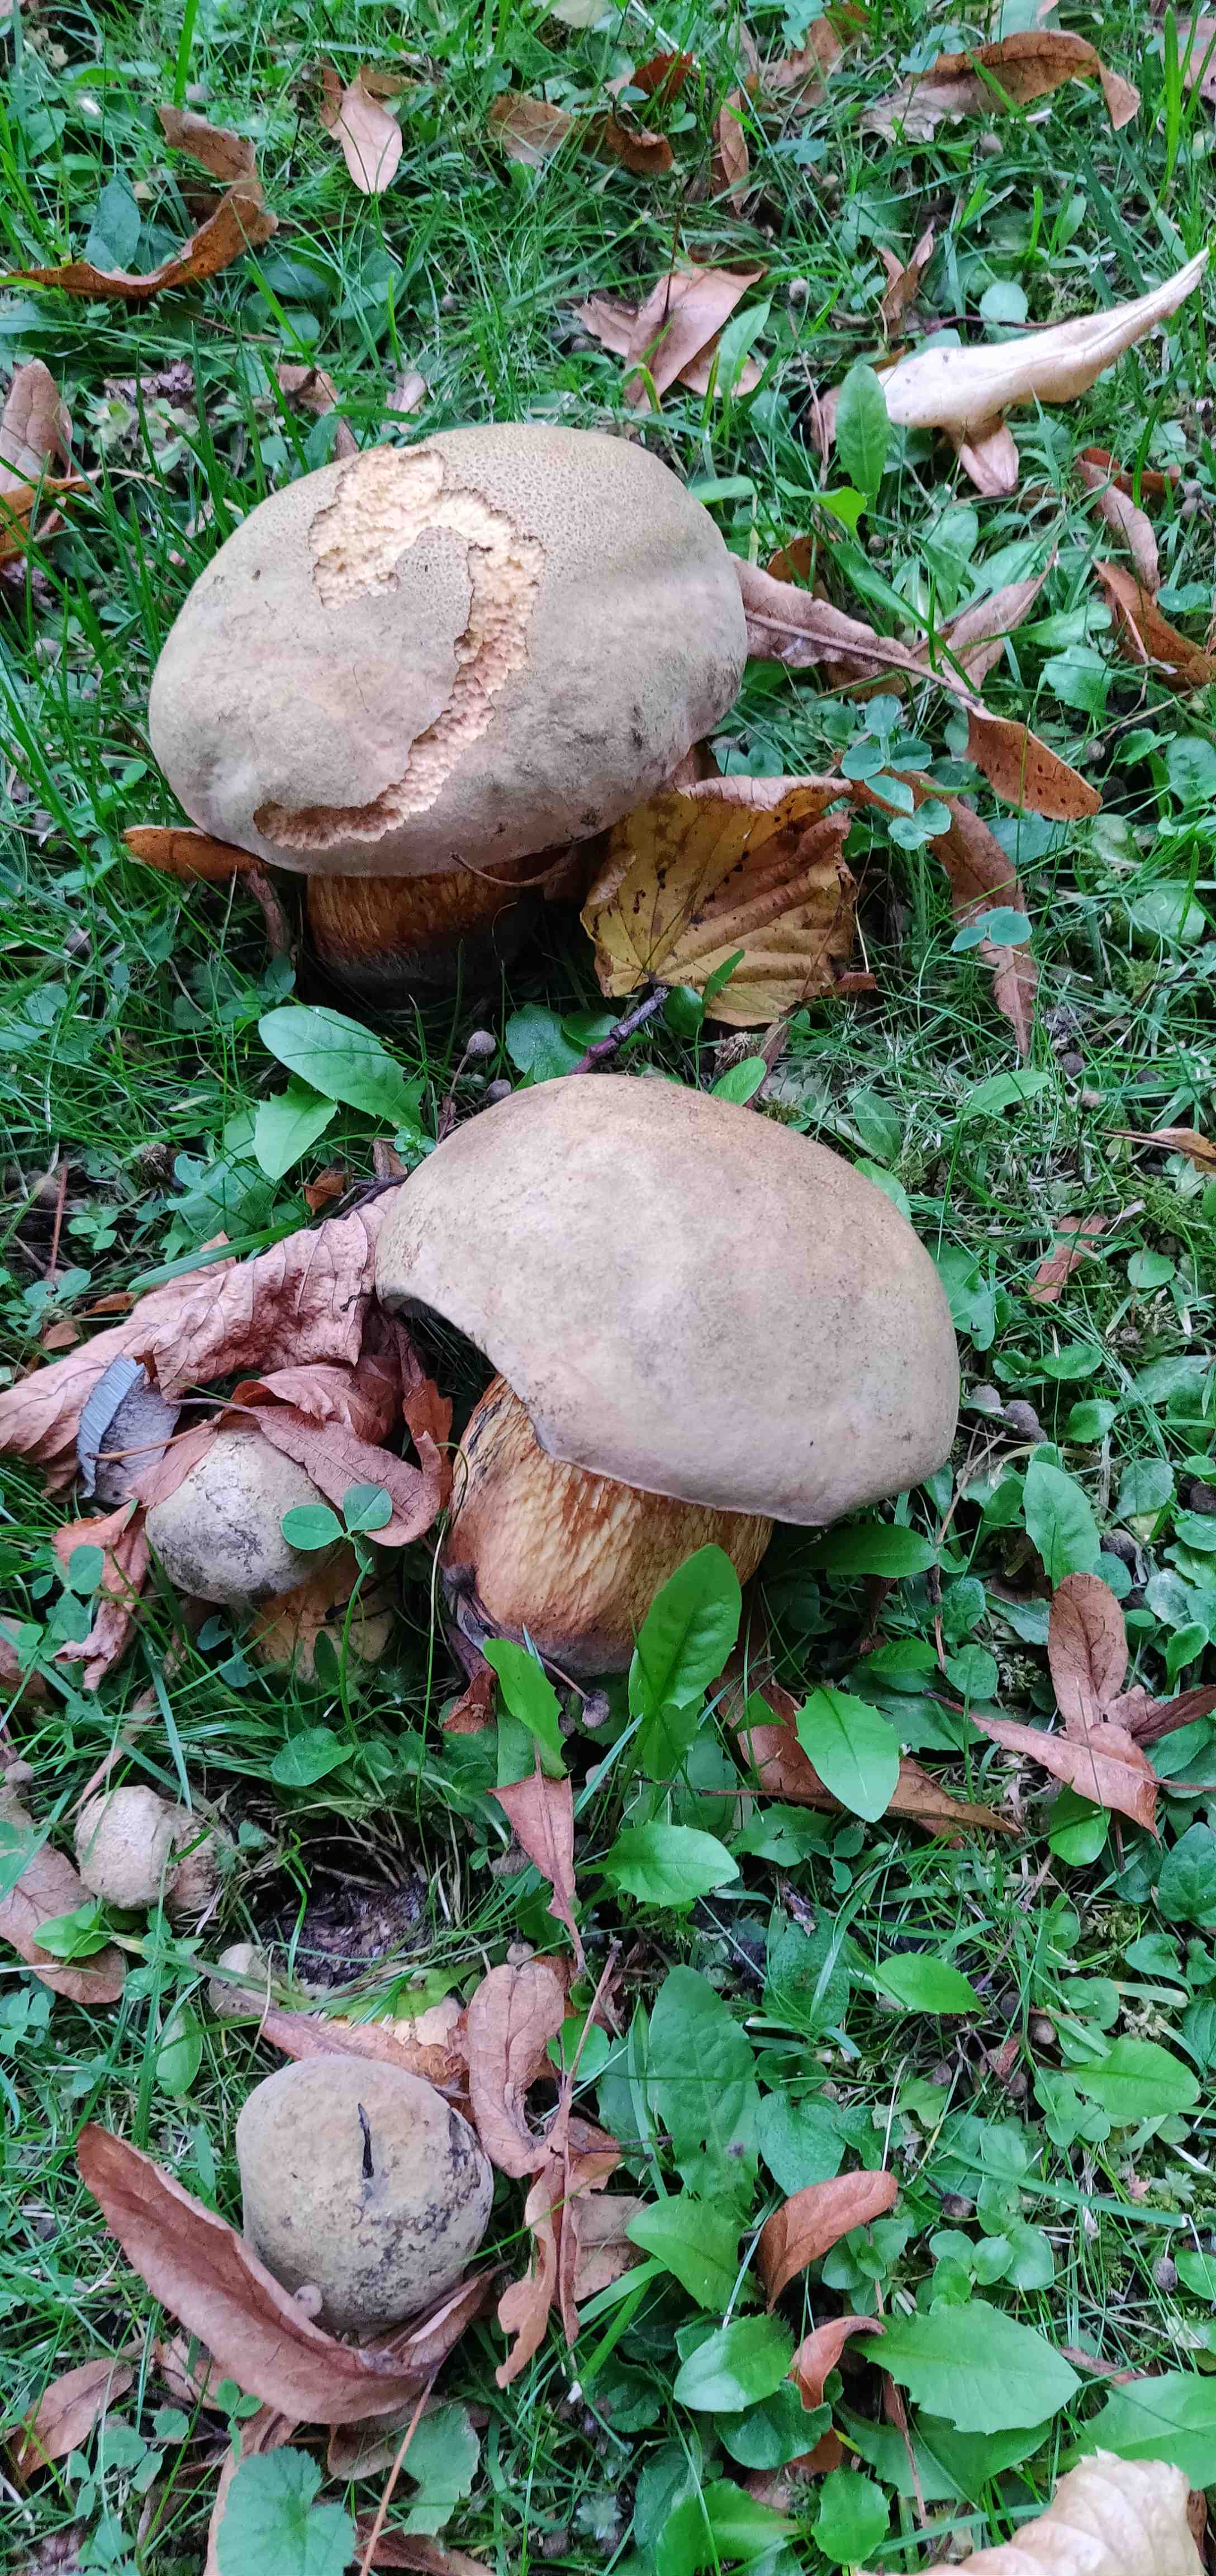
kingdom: Fungi
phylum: Basidiomycota
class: Agaricomycetes
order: Boletales
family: Boletaceae
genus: Suillellus
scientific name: Suillellus luridus
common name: netstokket indigorørhat
